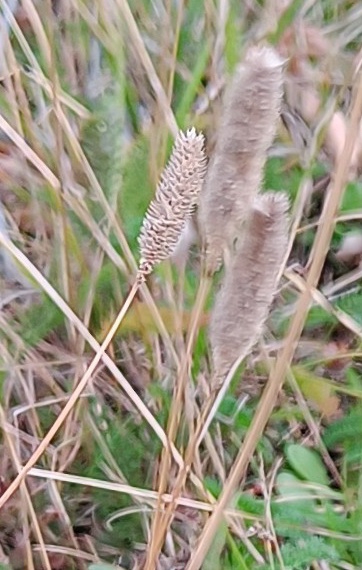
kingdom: Plantae
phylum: Tracheophyta
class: Liliopsida
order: Poales
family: Poaceae
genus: Phleum
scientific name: Phleum pratense
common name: Eng-rottehale
